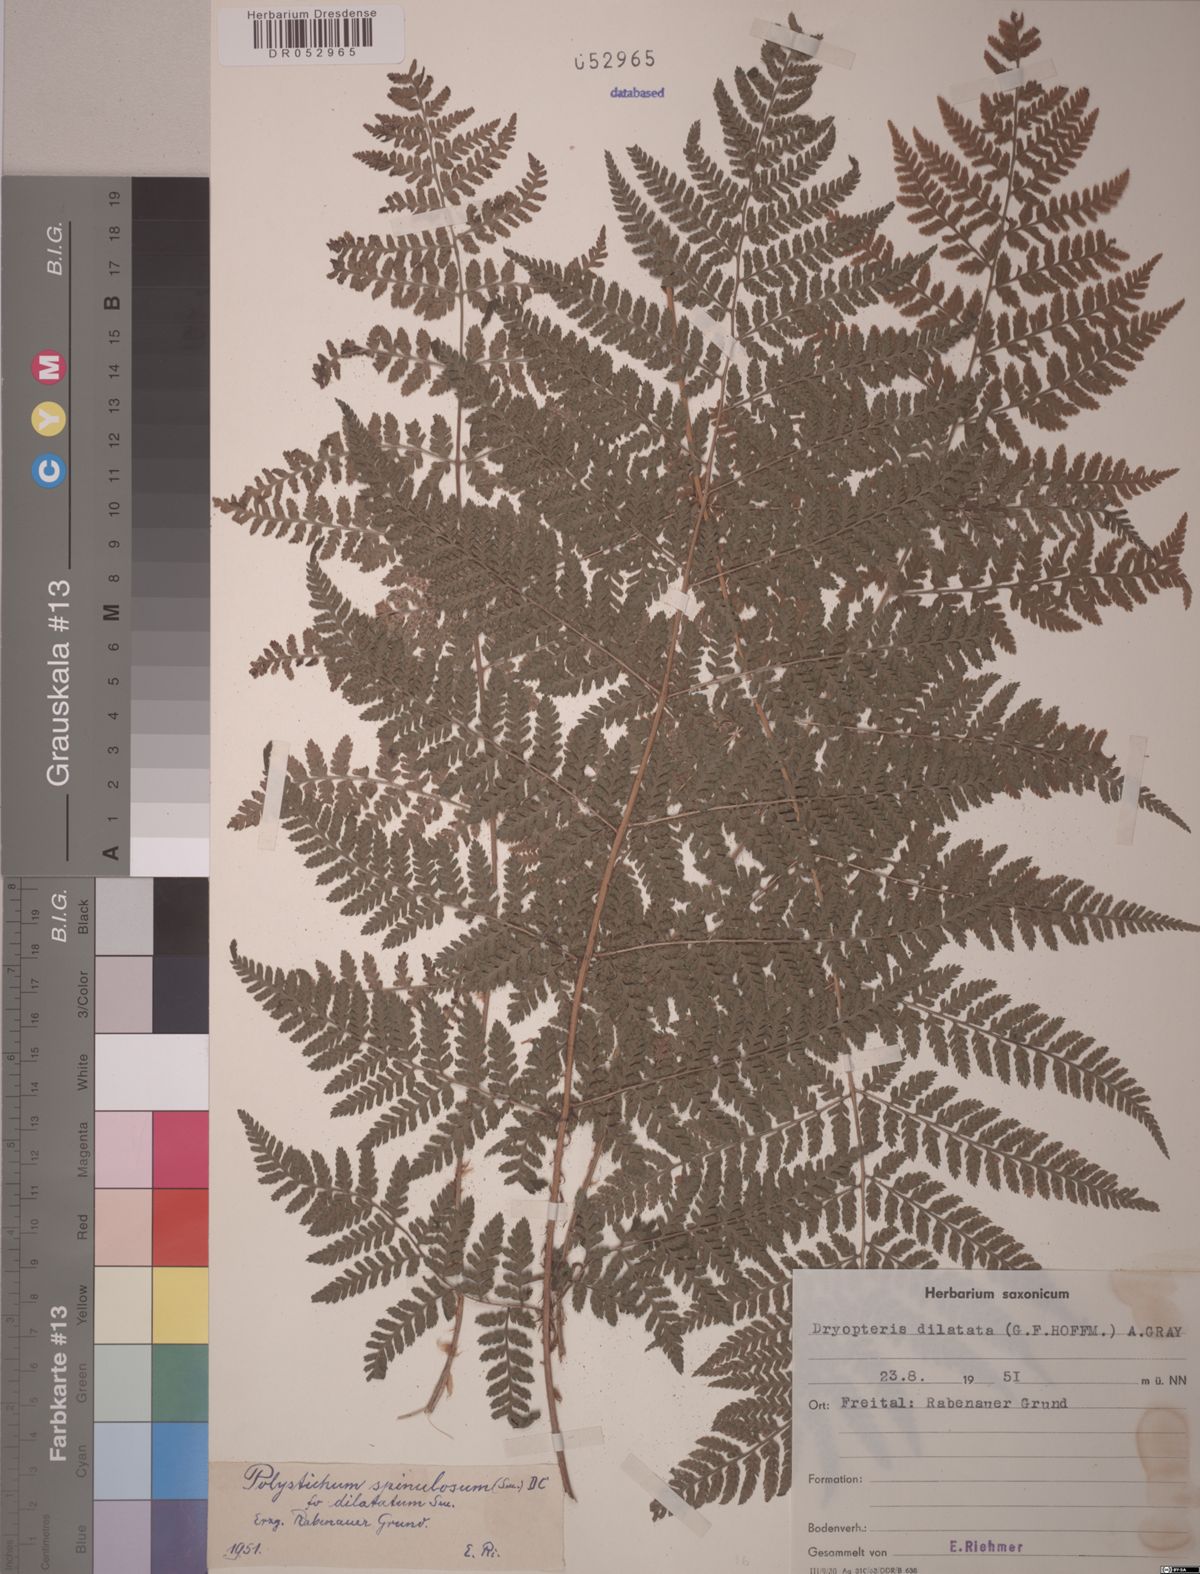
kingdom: Plantae
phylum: Tracheophyta
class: Polypodiopsida
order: Polypodiales
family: Dryopteridaceae
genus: Dryopteris
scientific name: Dryopteris dilatata
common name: Broad buckler-fern
